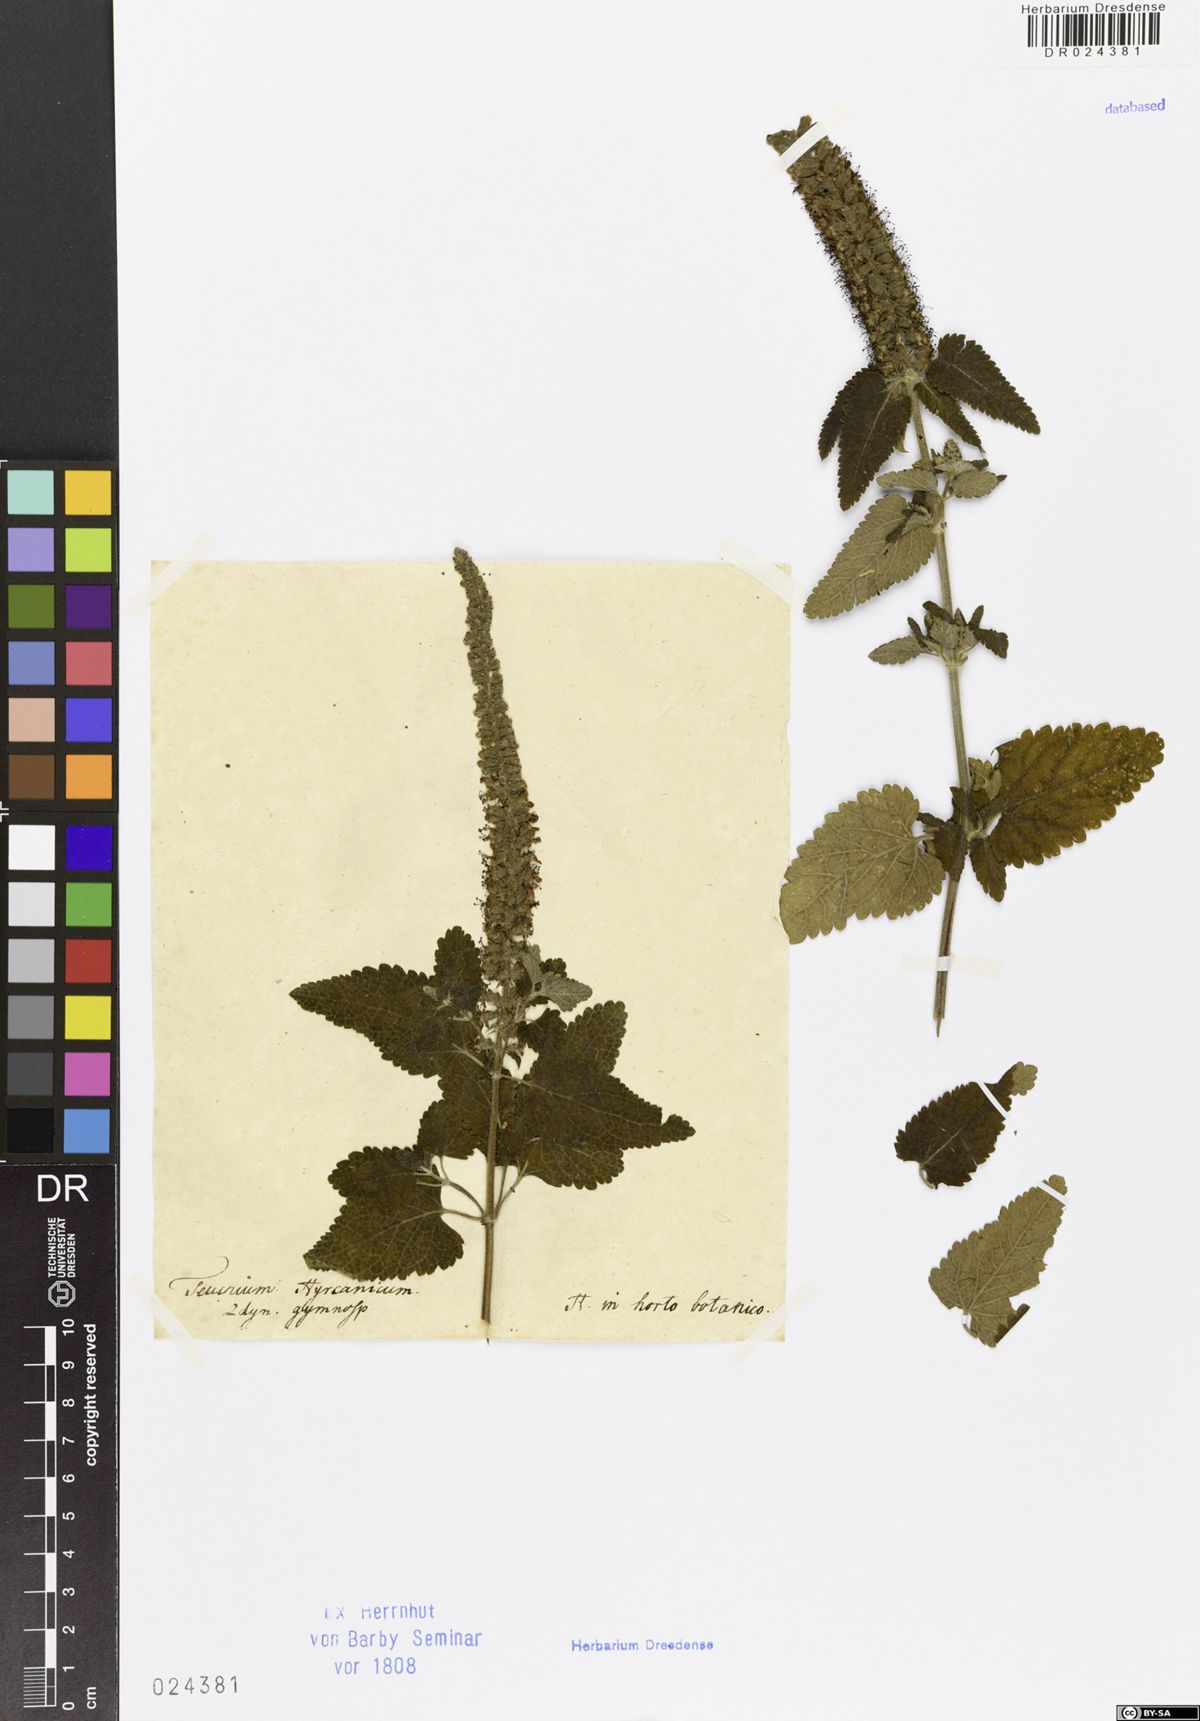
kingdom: Plantae
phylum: Tracheophyta
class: Magnoliopsida
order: Lamiales
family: Lamiaceae
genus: Teucrium
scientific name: Teucrium hircanicum
